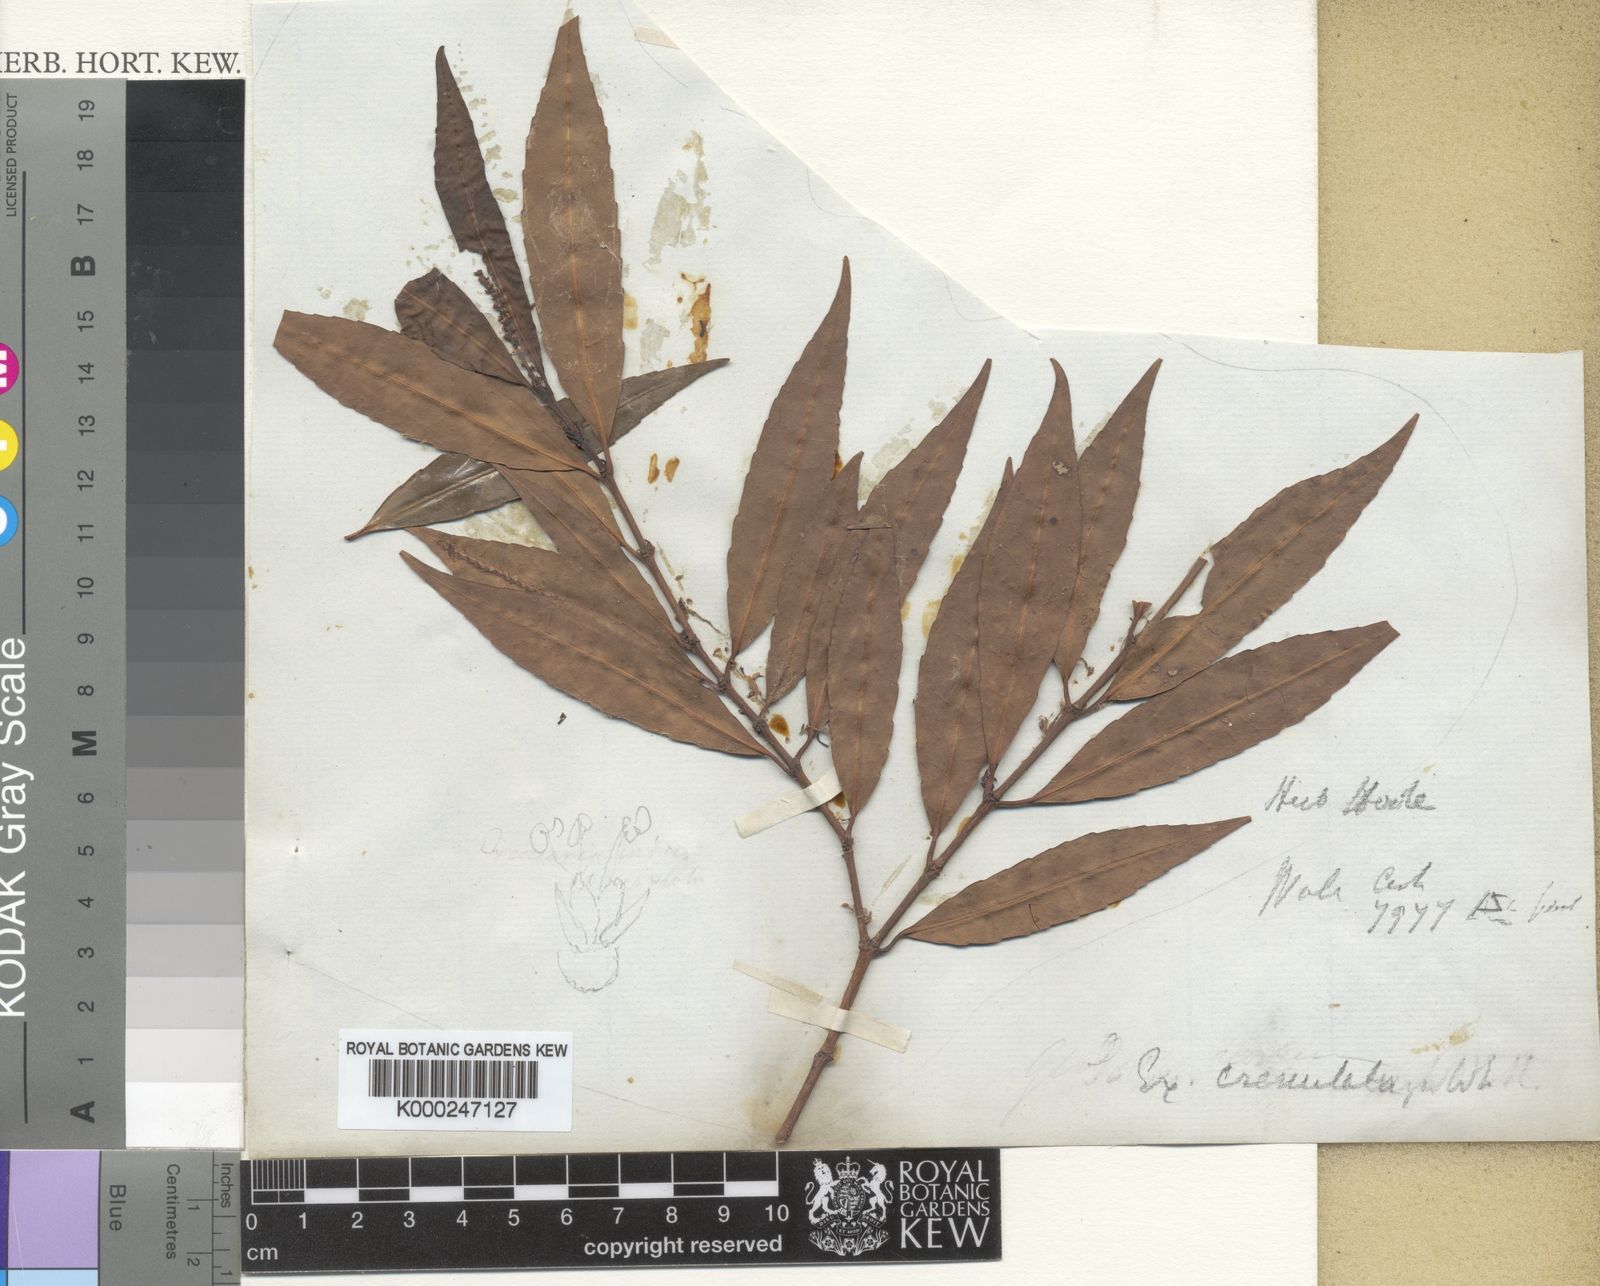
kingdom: Plantae
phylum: Tracheophyta
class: Magnoliopsida
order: Malpighiales
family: Euphorbiaceae
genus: Excoecaria
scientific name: Excoecaria oppositifolia
